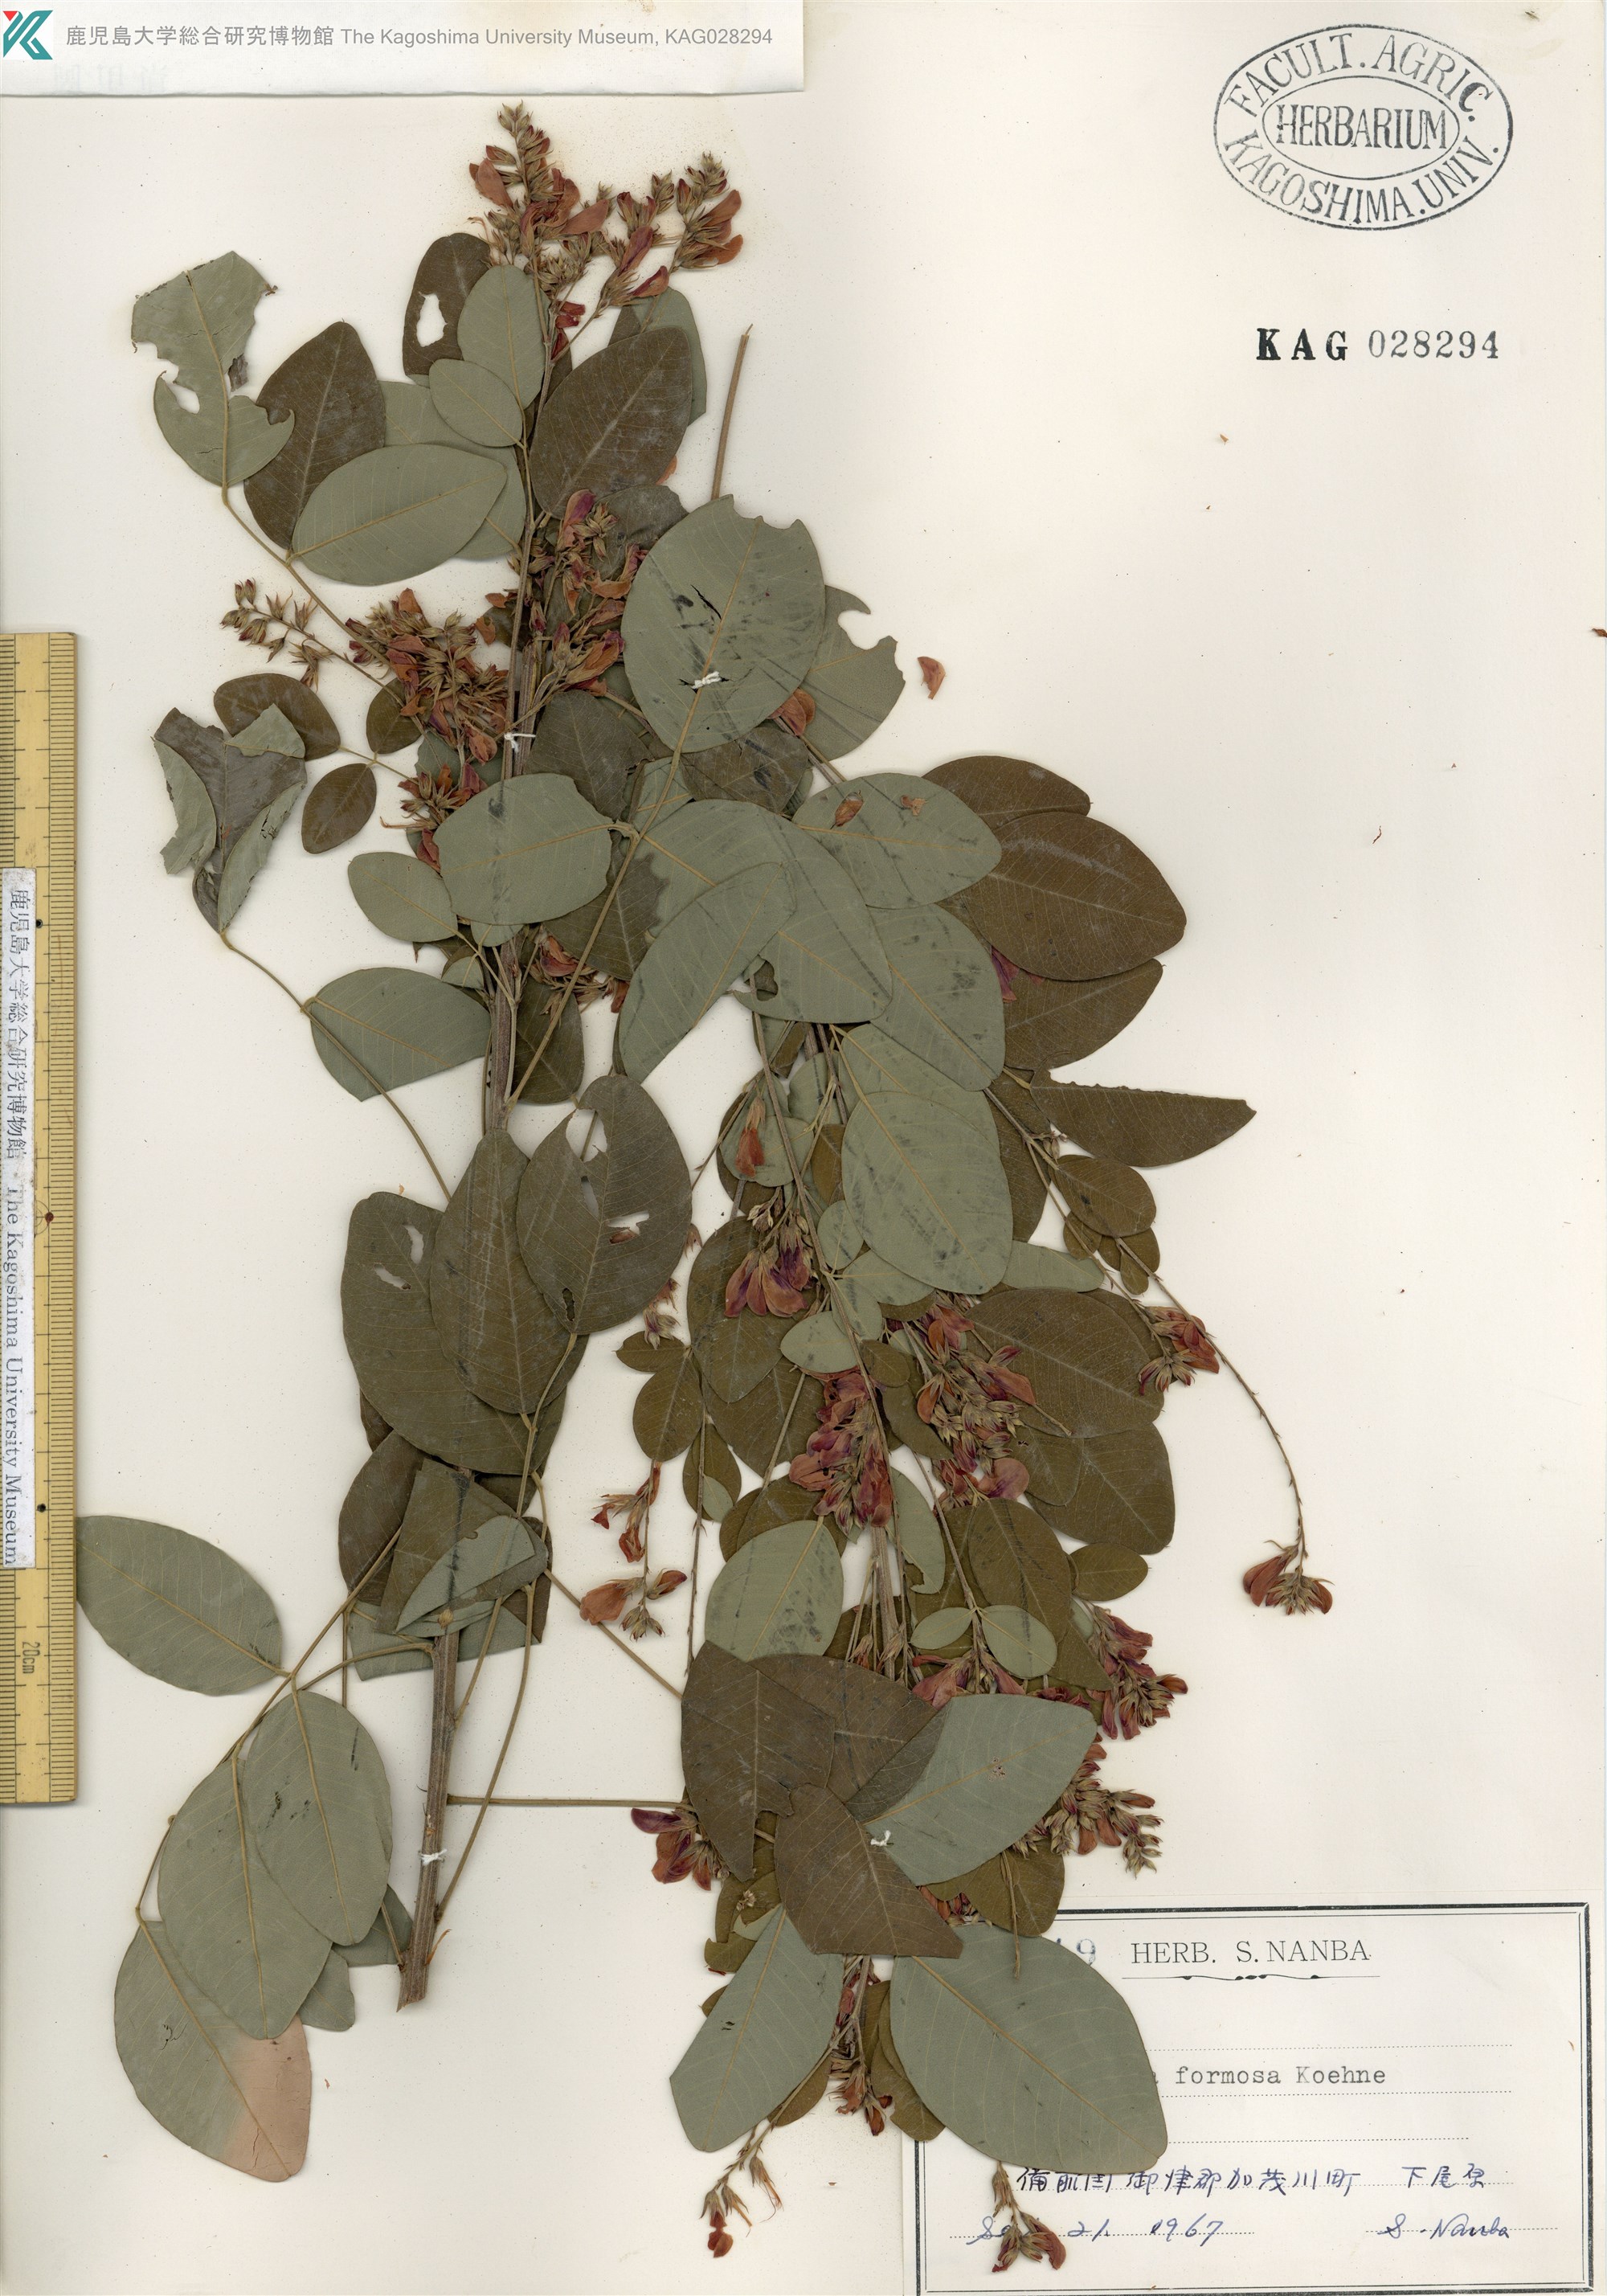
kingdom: Plantae
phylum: Tracheophyta
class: Magnoliopsida
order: Fabales
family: Fabaceae
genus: Lespedeza
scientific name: Lespedeza thunbergii
